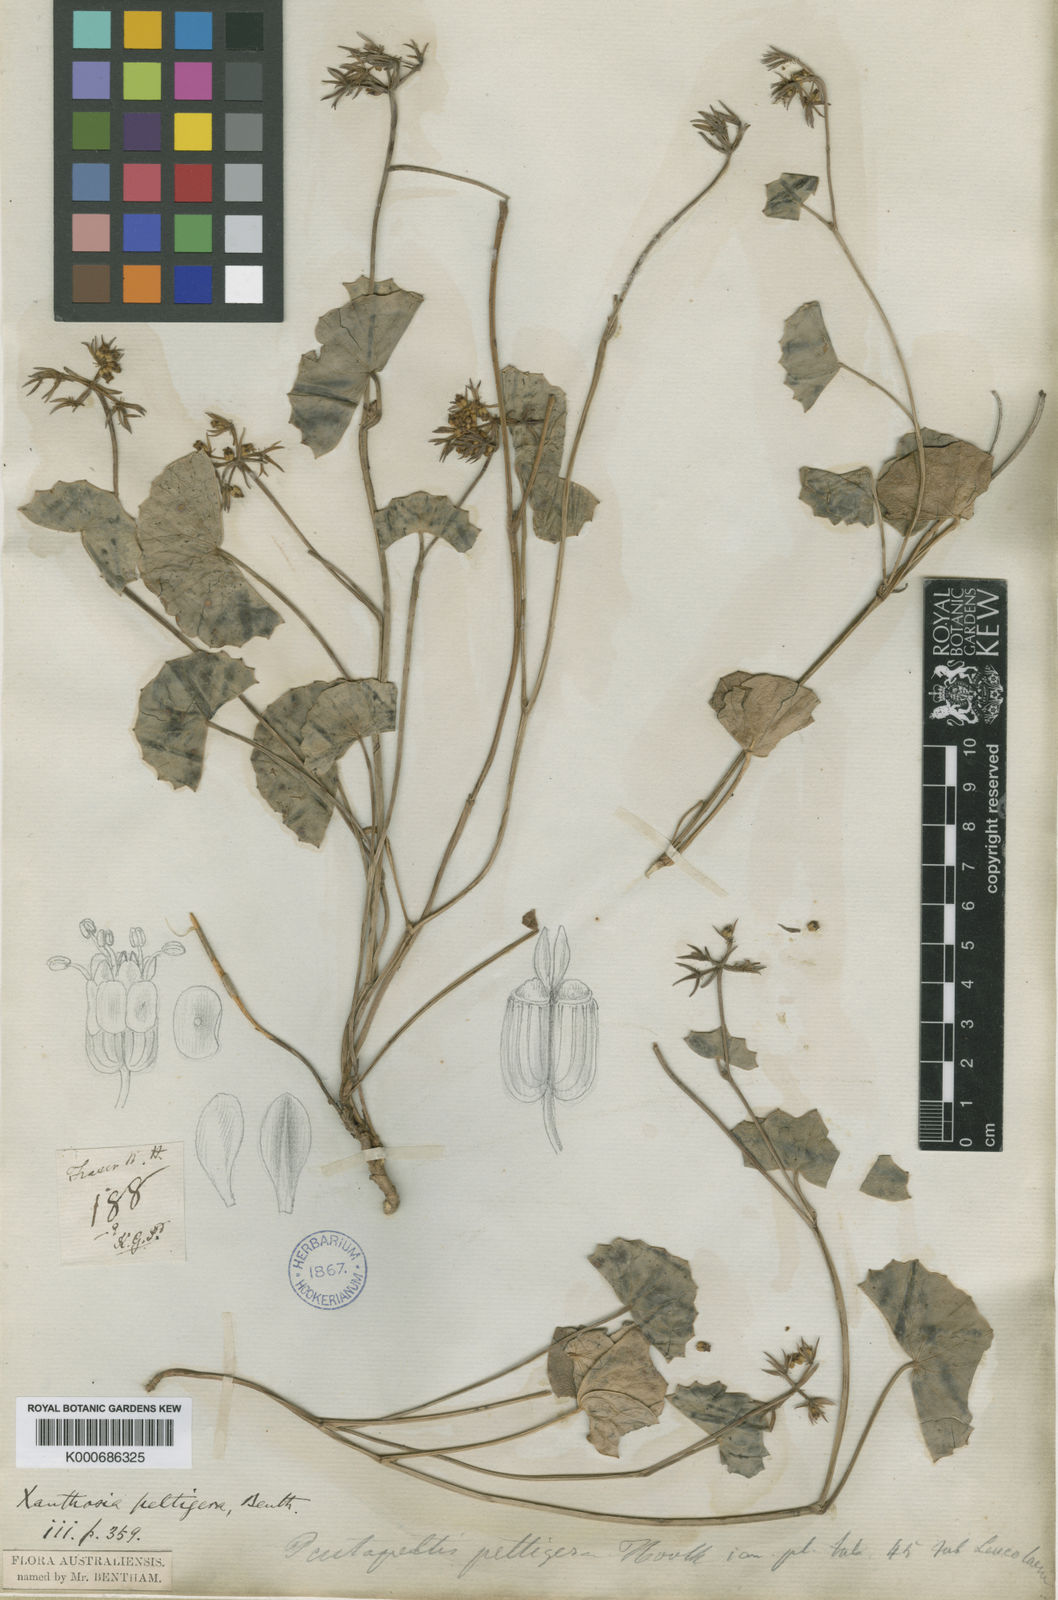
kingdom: Plantae
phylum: Tracheophyta
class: Magnoliopsida
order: Apiales
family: Apiaceae
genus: Pentapeltis
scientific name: Pentapeltis peltigera
